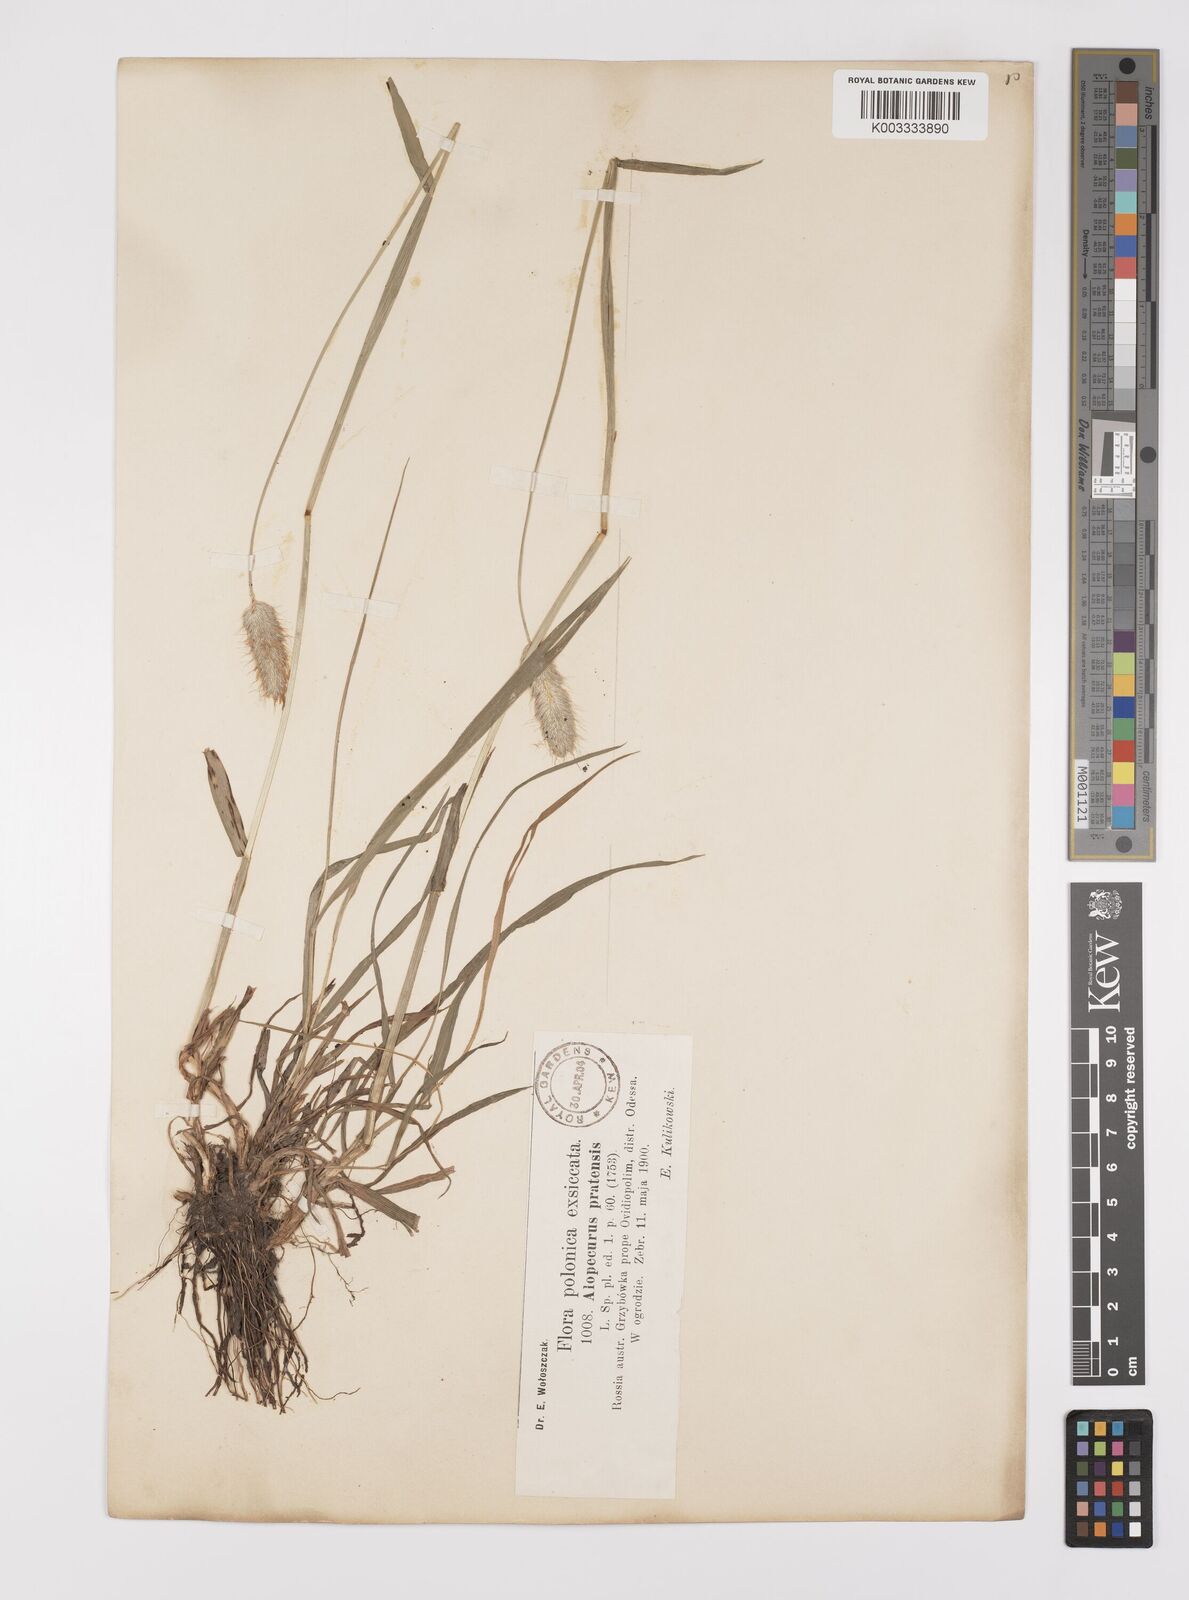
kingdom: Plantae
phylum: Tracheophyta
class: Liliopsida
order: Poales
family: Poaceae
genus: Alopecurus
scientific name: Alopecurus pratensis
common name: Meadow foxtail
